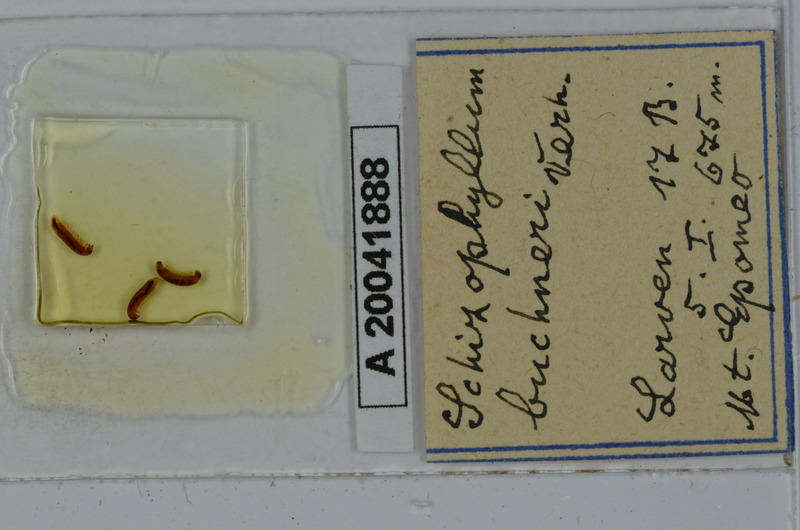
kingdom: Animalia
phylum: Arthropoda
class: Diplopoda
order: Julida
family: Julidae
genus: Schizophyllum
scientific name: Schizophyllum buchneri
